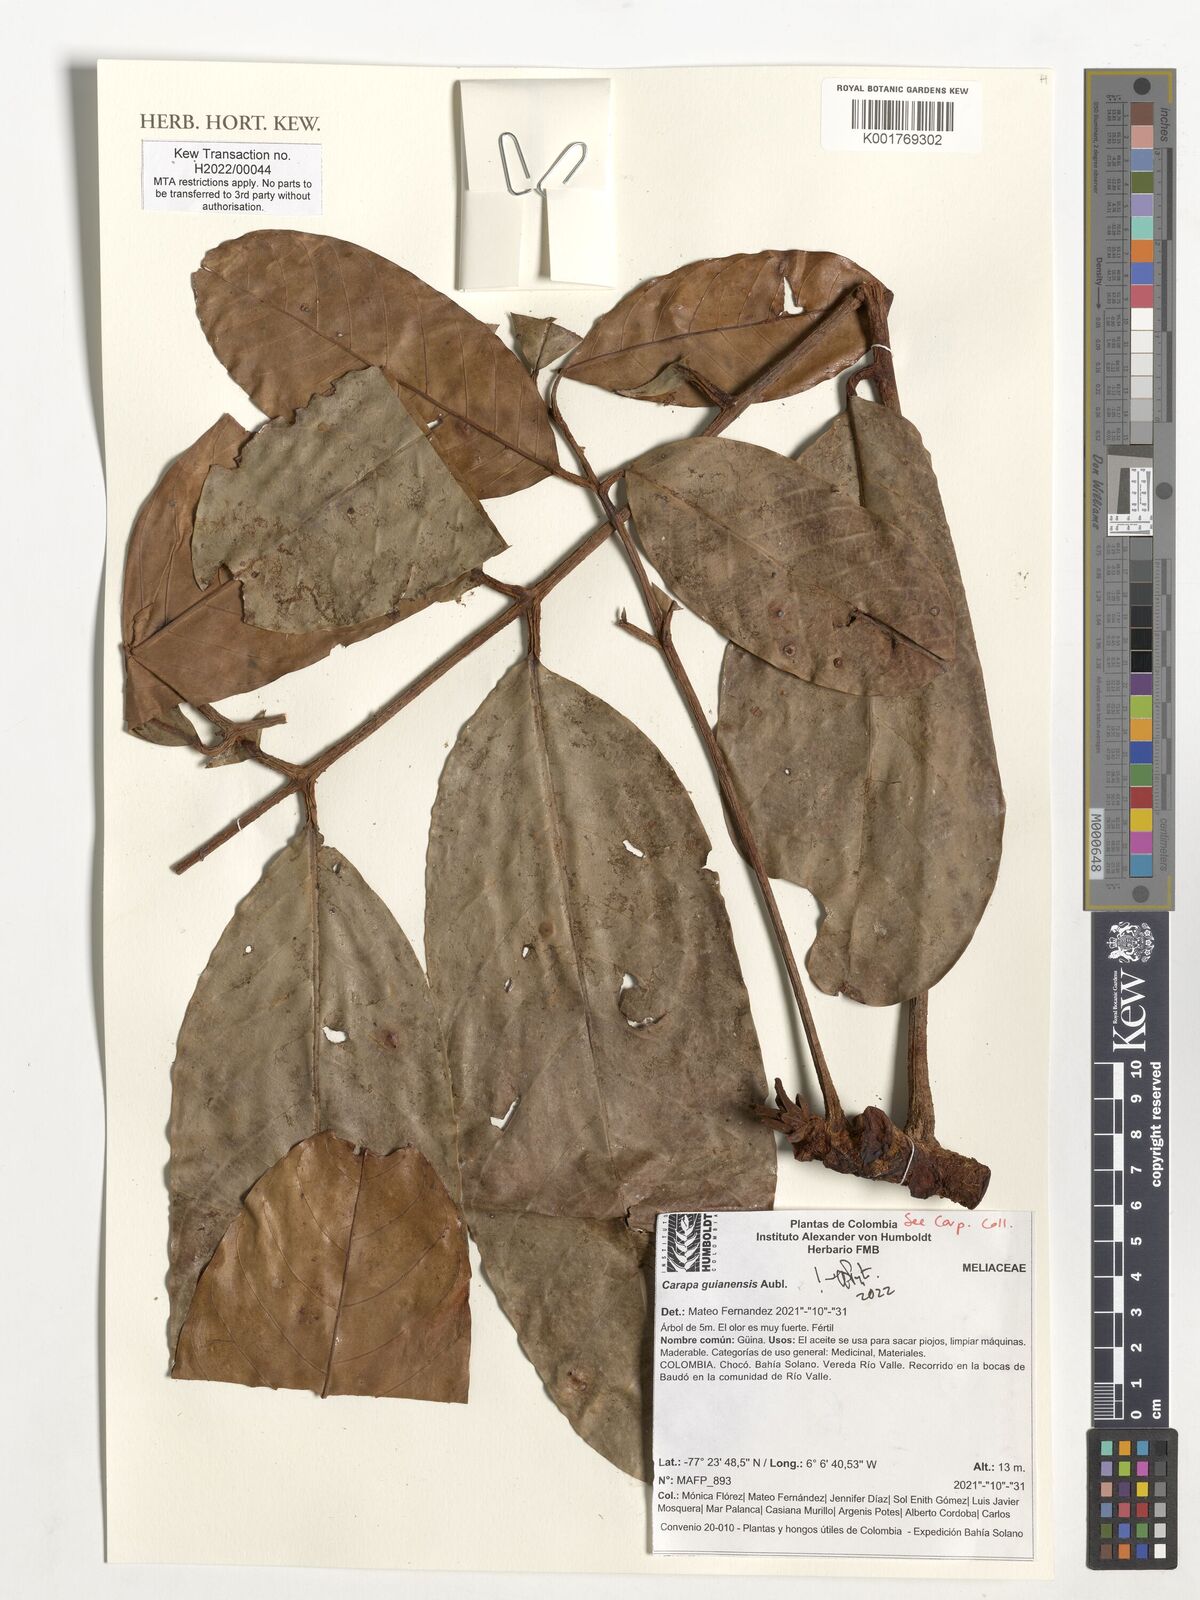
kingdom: Plantae
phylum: Tracheophyta
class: Magnoliopsida
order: Sapindales
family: Meliaceae
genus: Carapa
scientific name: Carapa guianensis
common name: Crabwood
